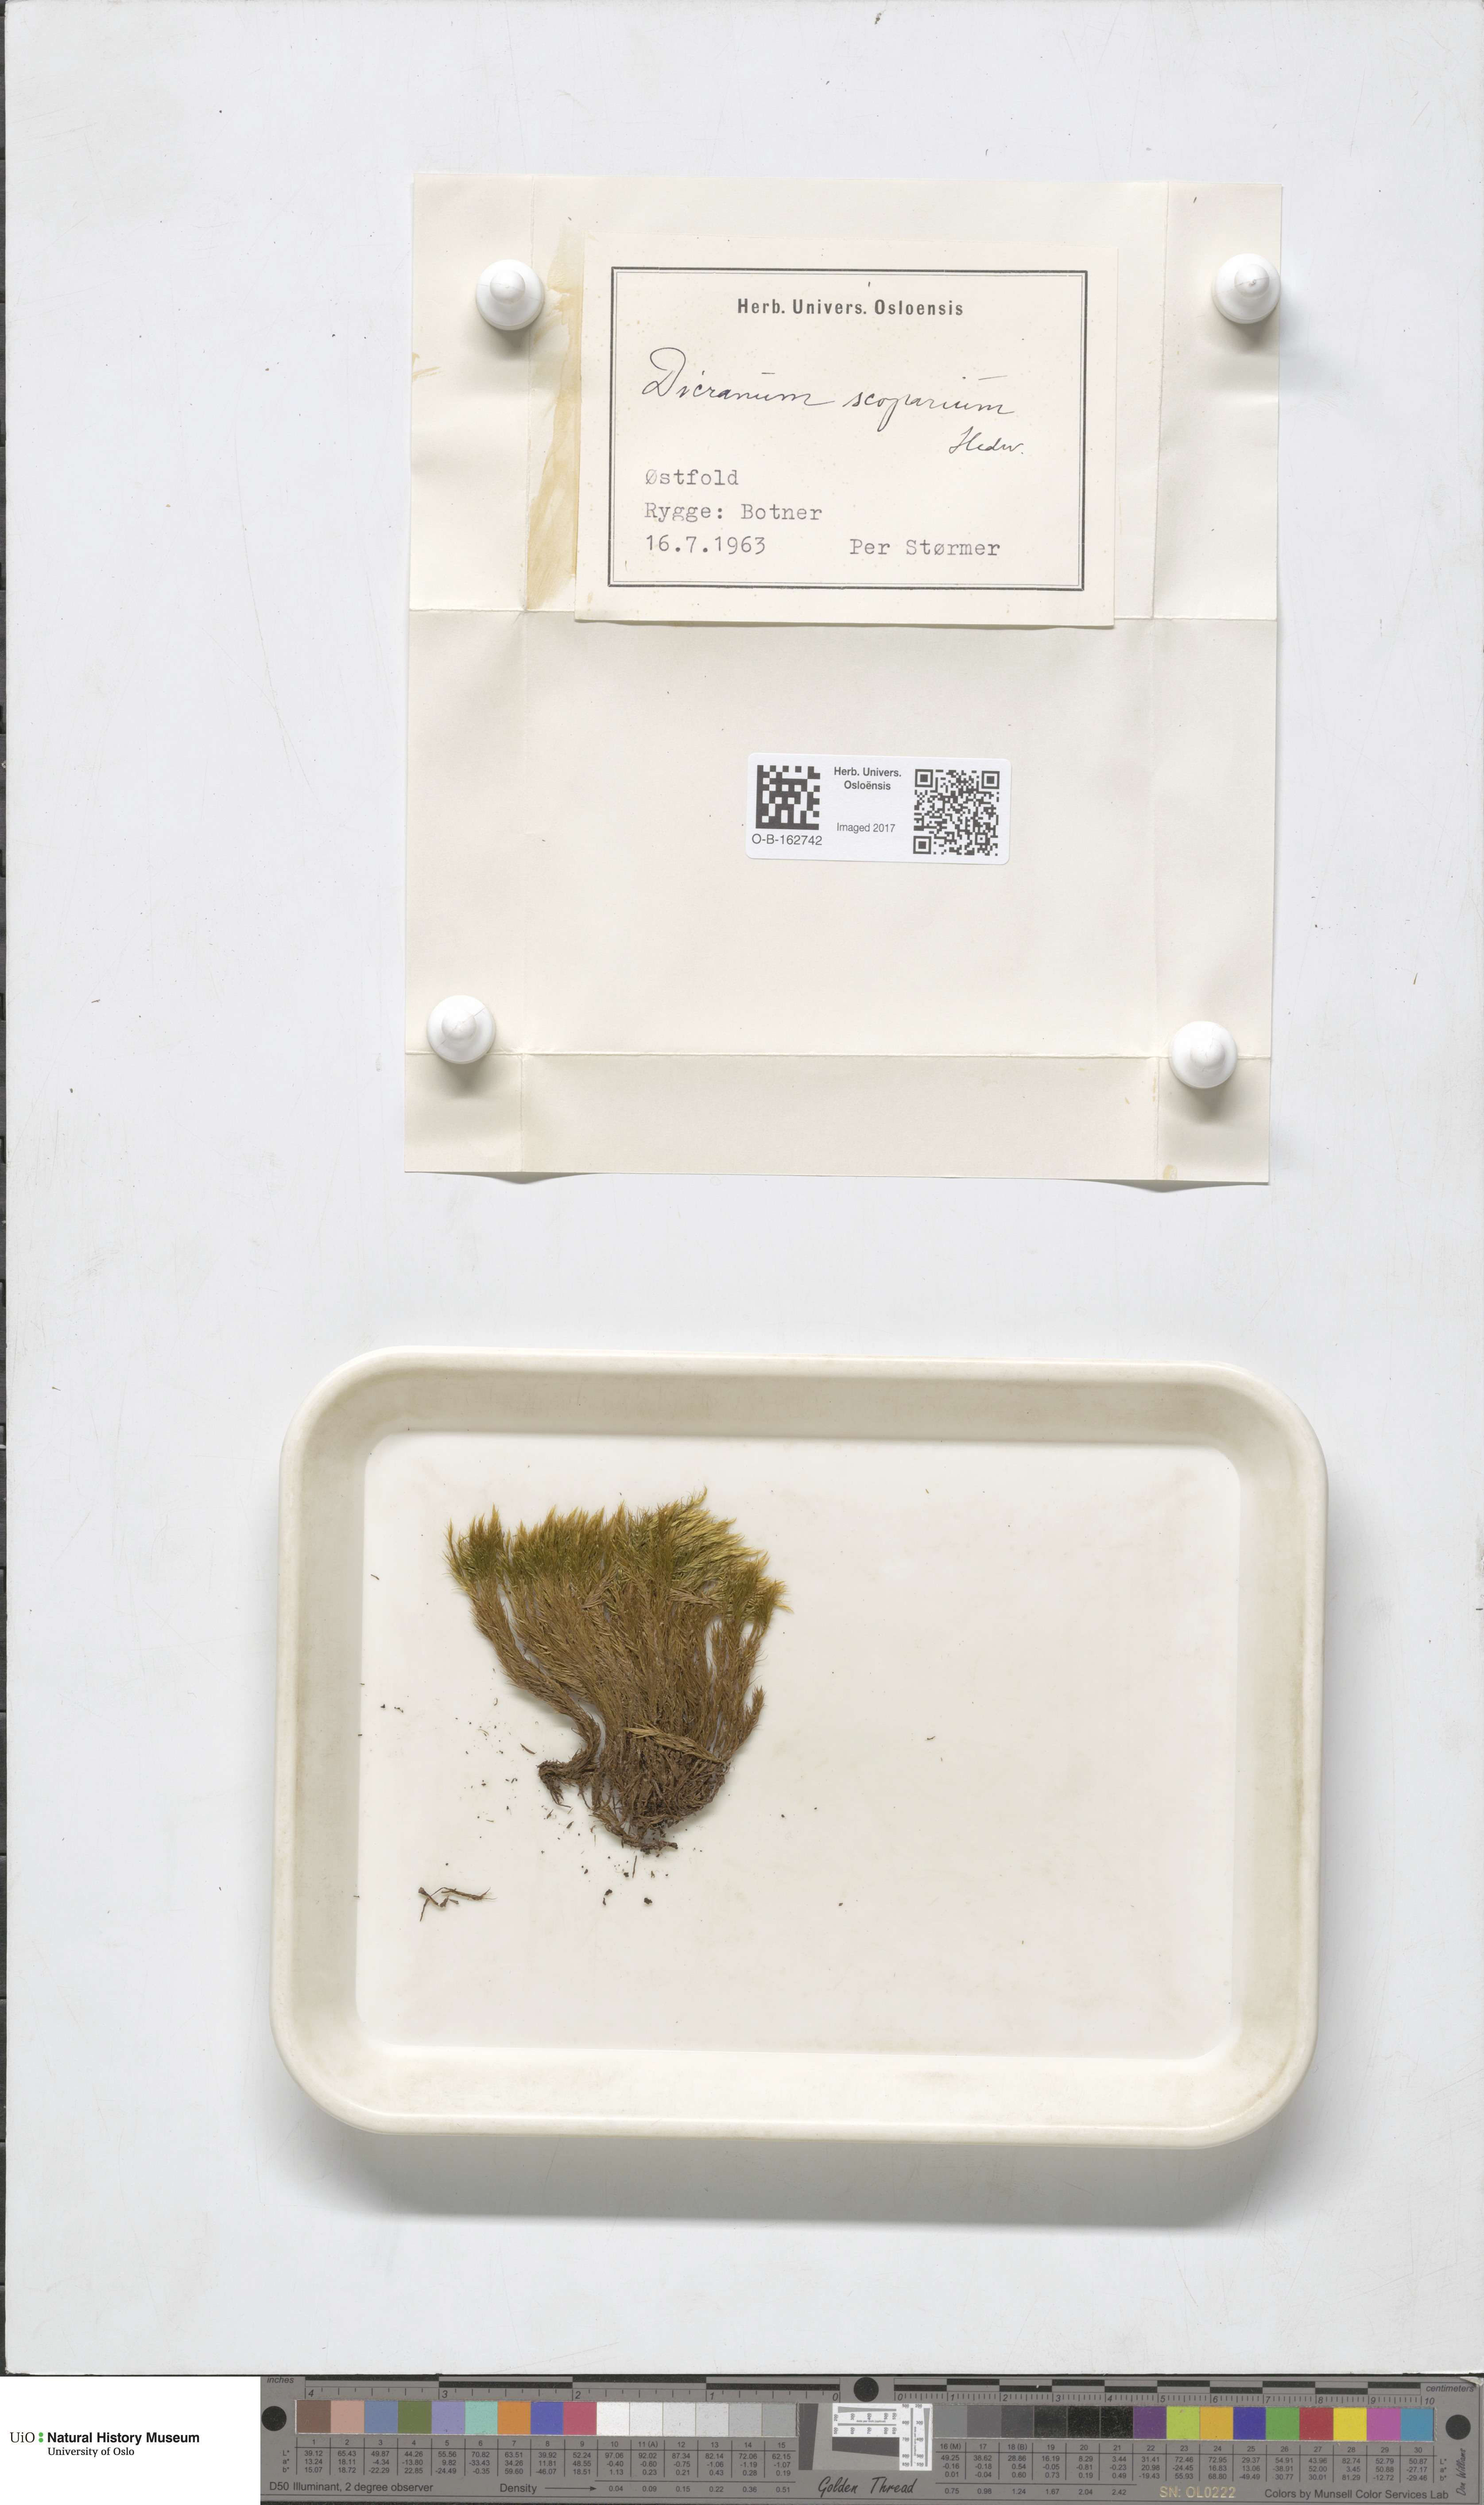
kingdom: Plantae
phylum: Bryophyta
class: Bryopsida
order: Dicranales
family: Dicranaceae
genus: Dicranum
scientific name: Dicranum scoparium
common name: Broom fork-moss
